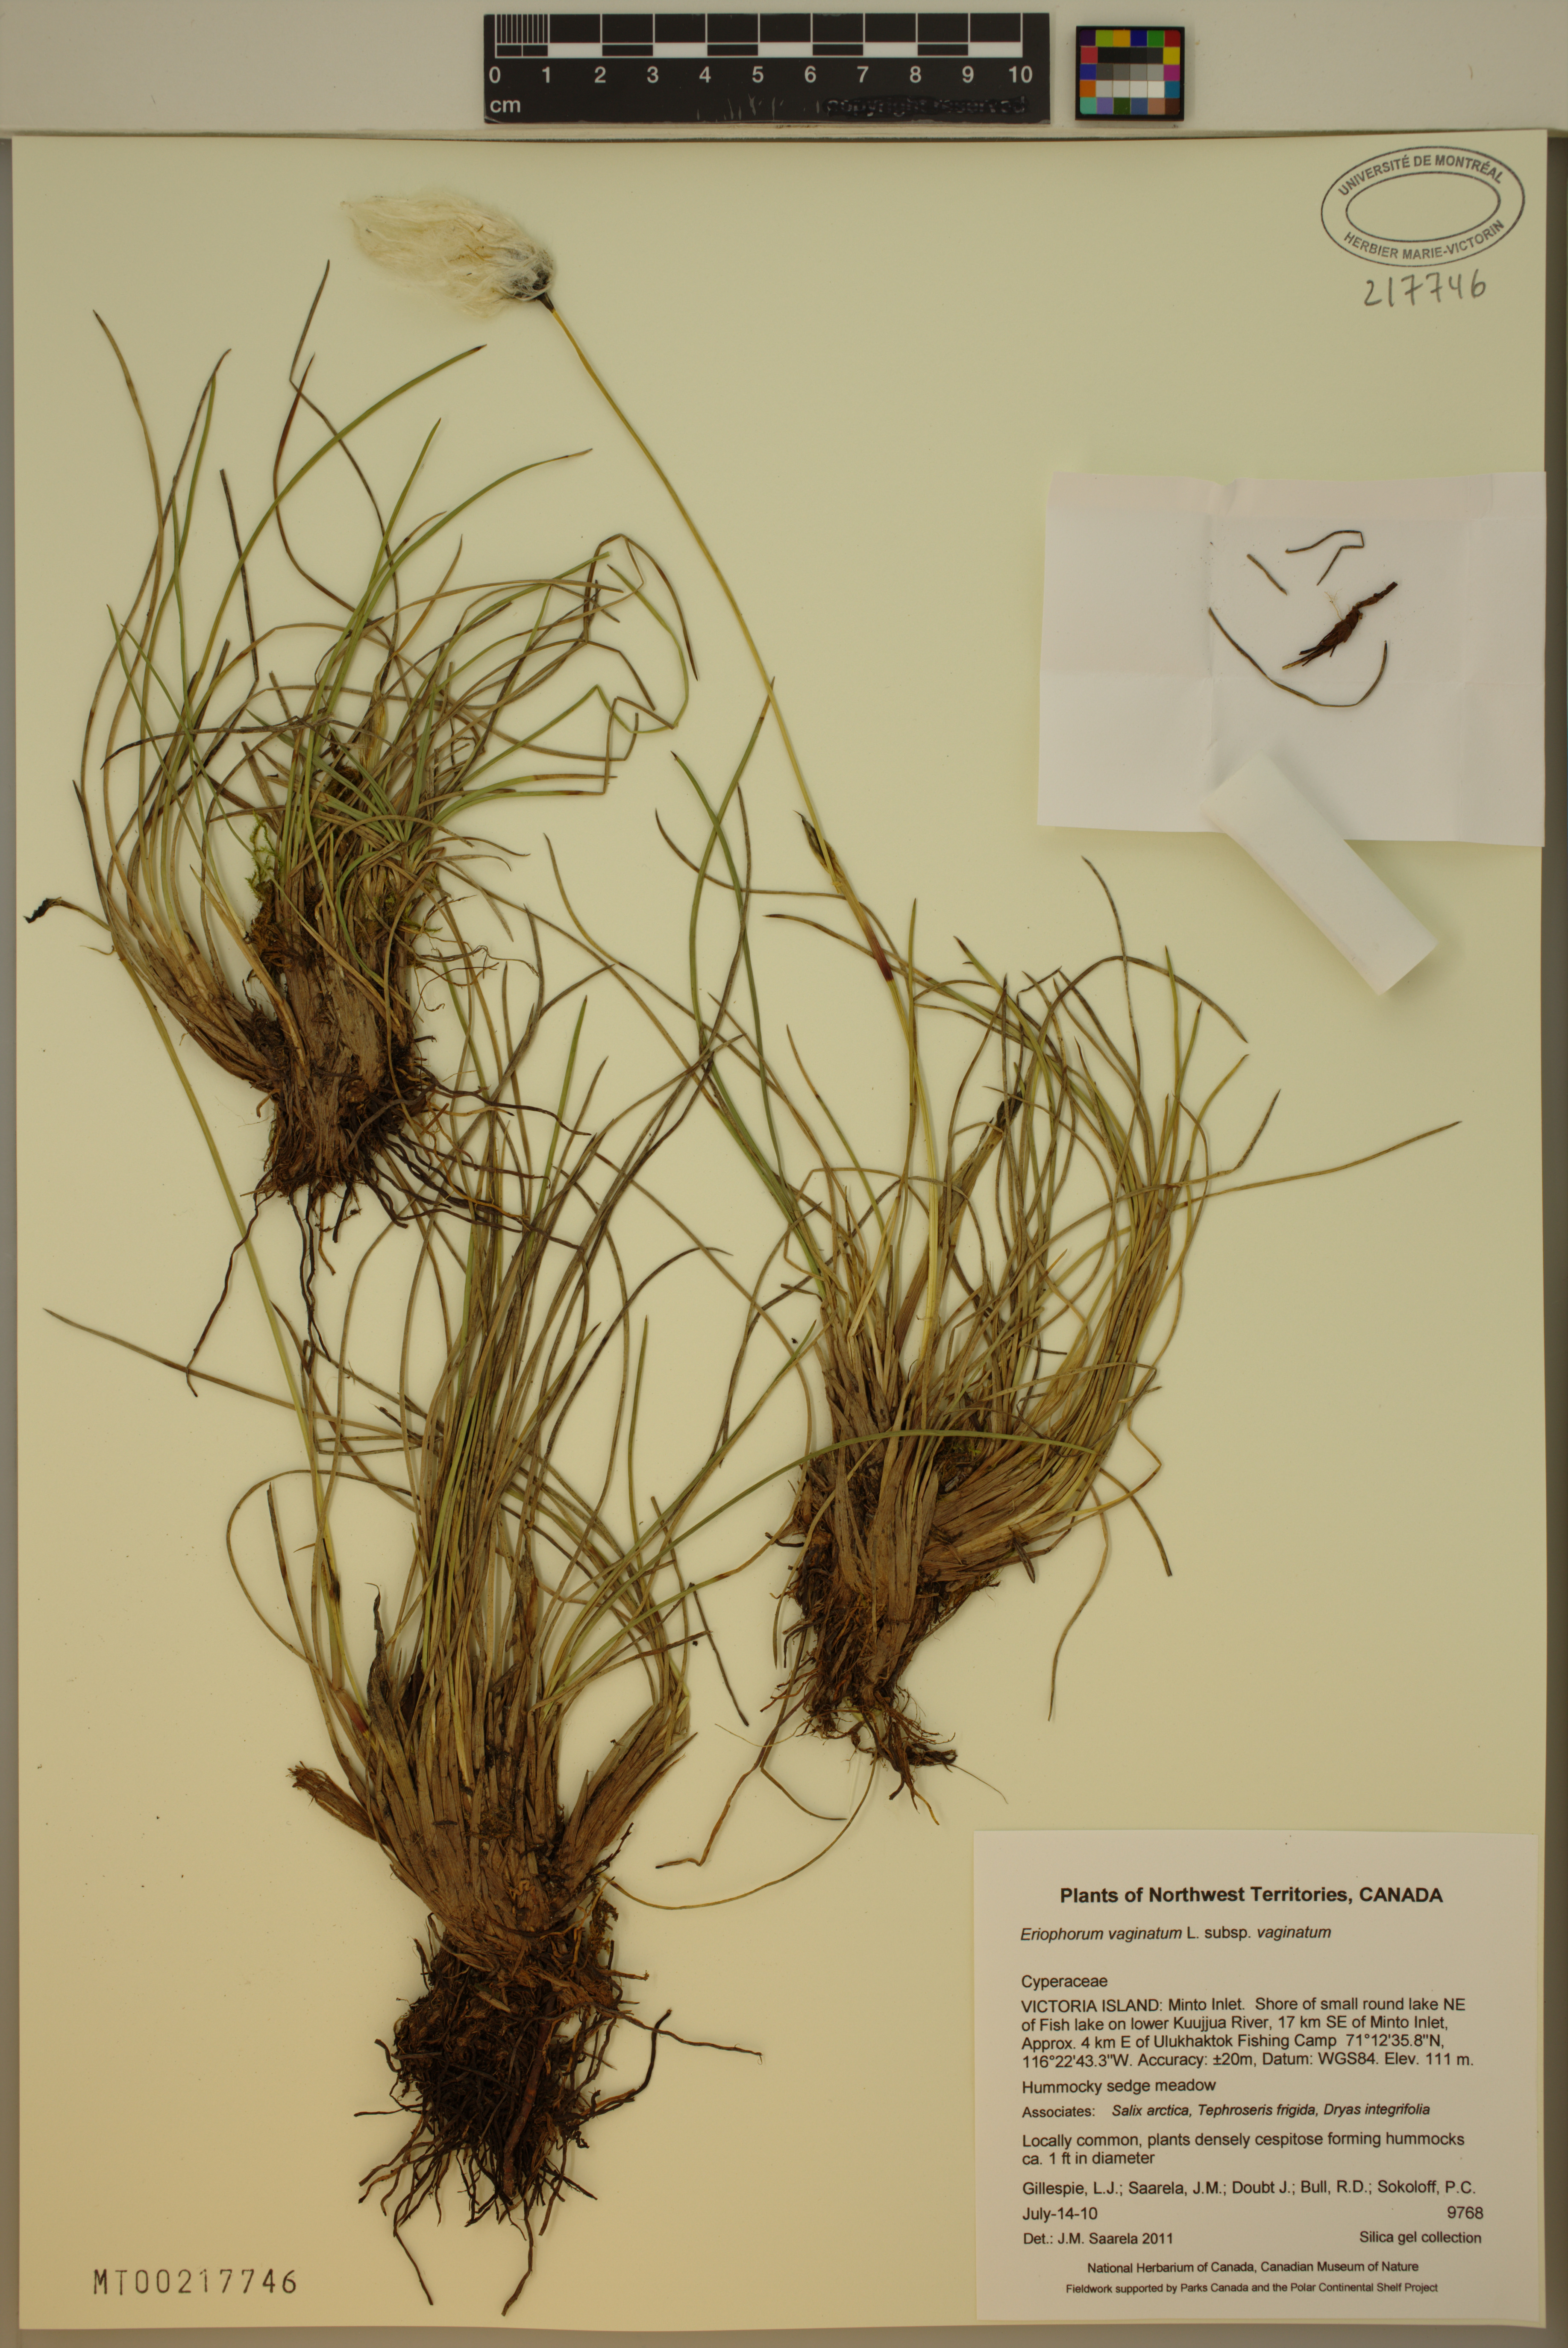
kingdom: Plantae
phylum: Tracheophyta
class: Liliopsida
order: Poales
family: Cyperaceae
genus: Eriophorum
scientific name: Eriophorum vaginatum
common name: Hare's-tail cottongrass
